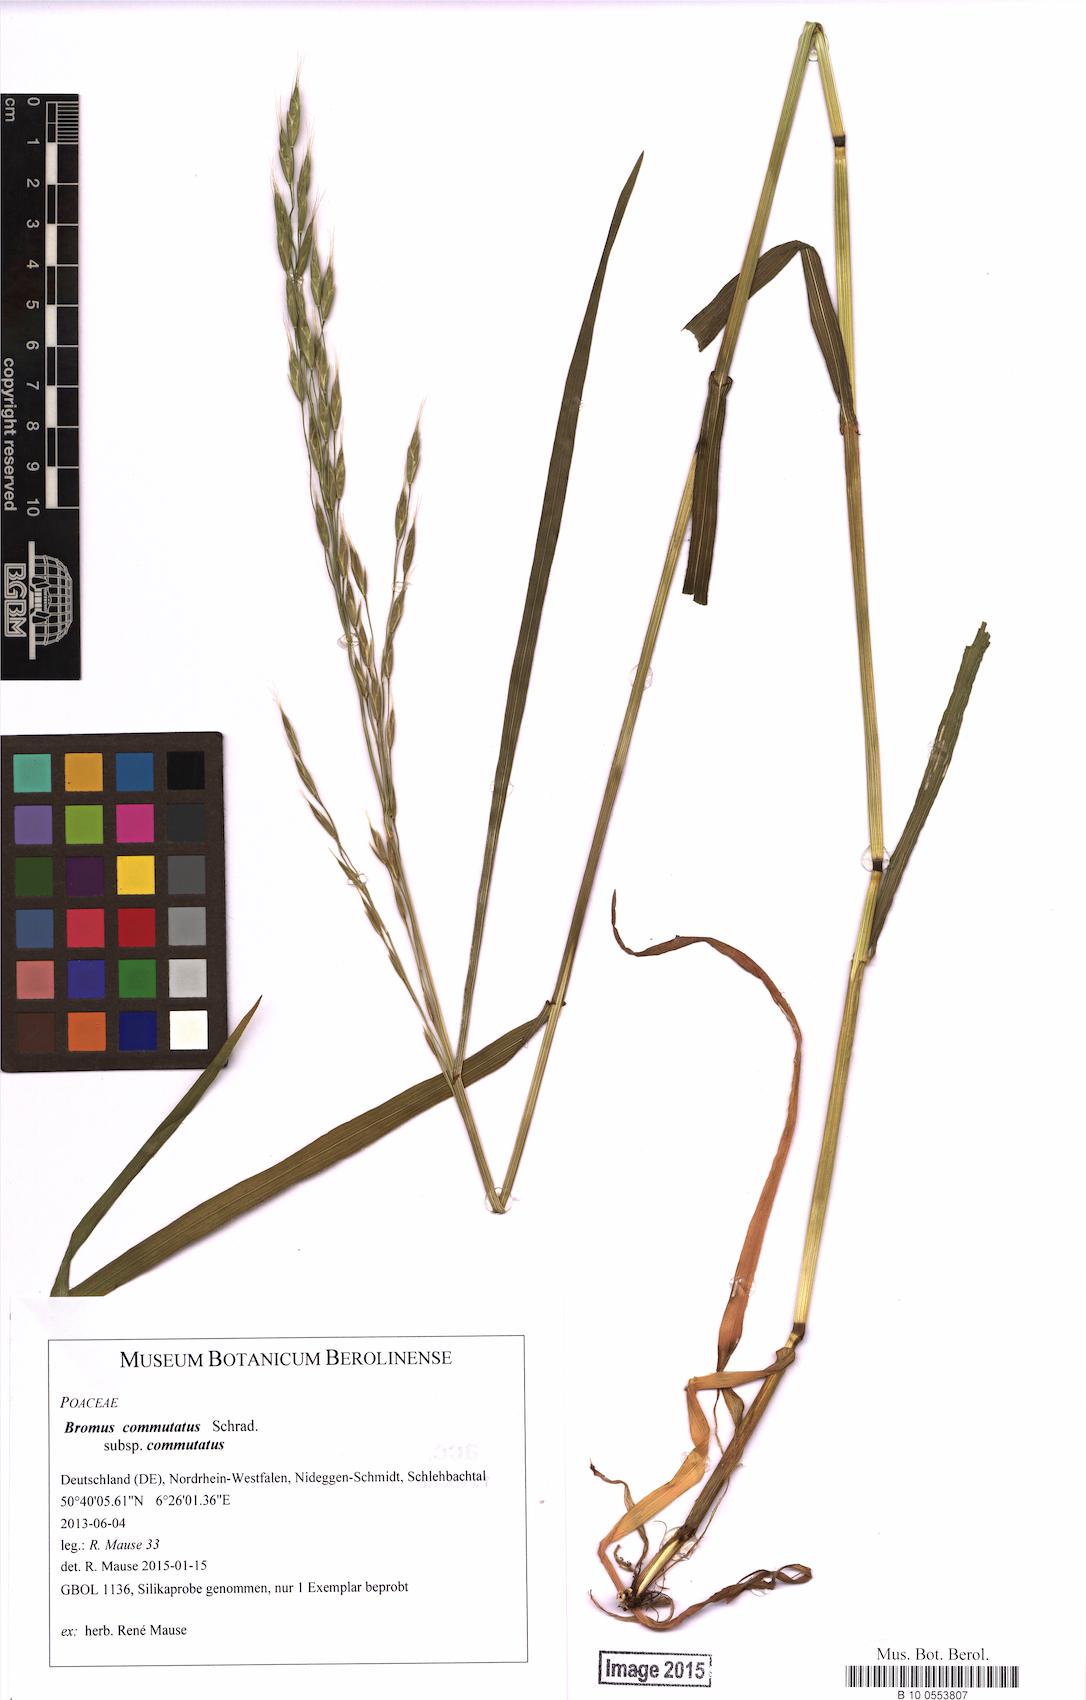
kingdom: Plantae
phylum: Tracheophyta
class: Liliopsida
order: Poales
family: Poaceae
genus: Bromus
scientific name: Bromus commutatus
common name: Meadow brome
